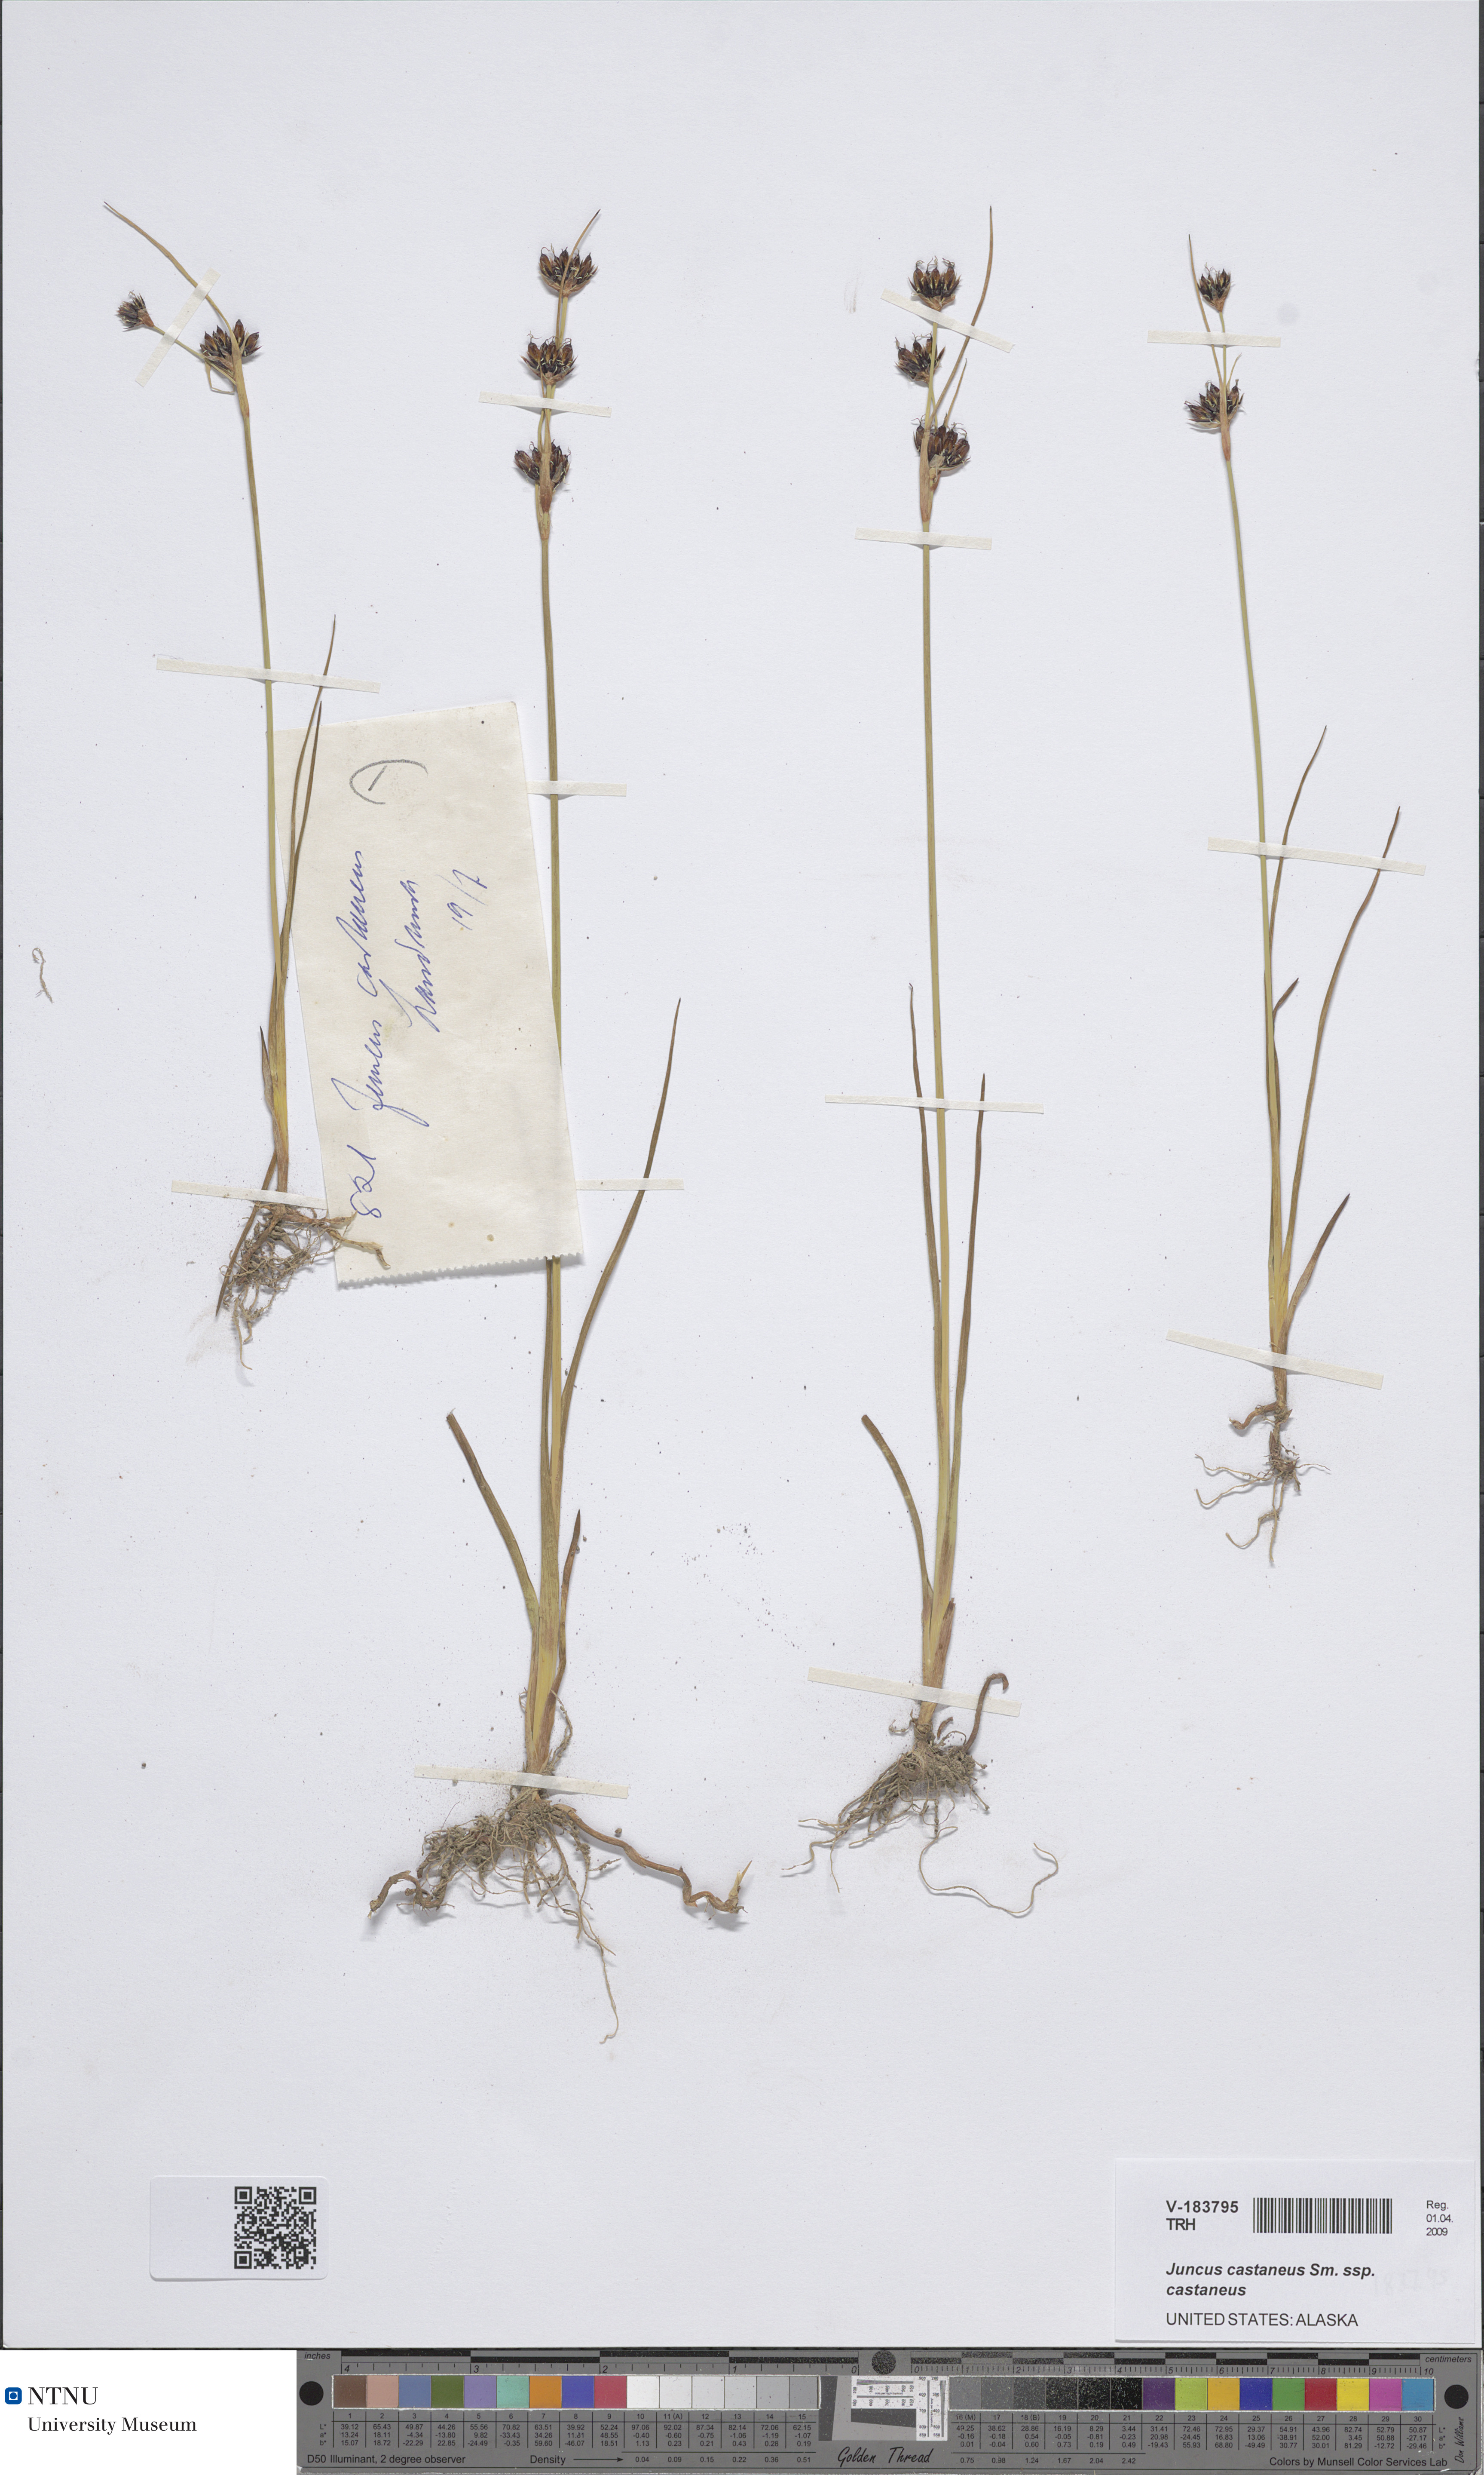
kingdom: Plantae
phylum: Tracheophyta
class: Liliopsida
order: Poales
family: Juncaceae
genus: Juncus
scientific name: Juncus castaneus
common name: Chestnut rush
